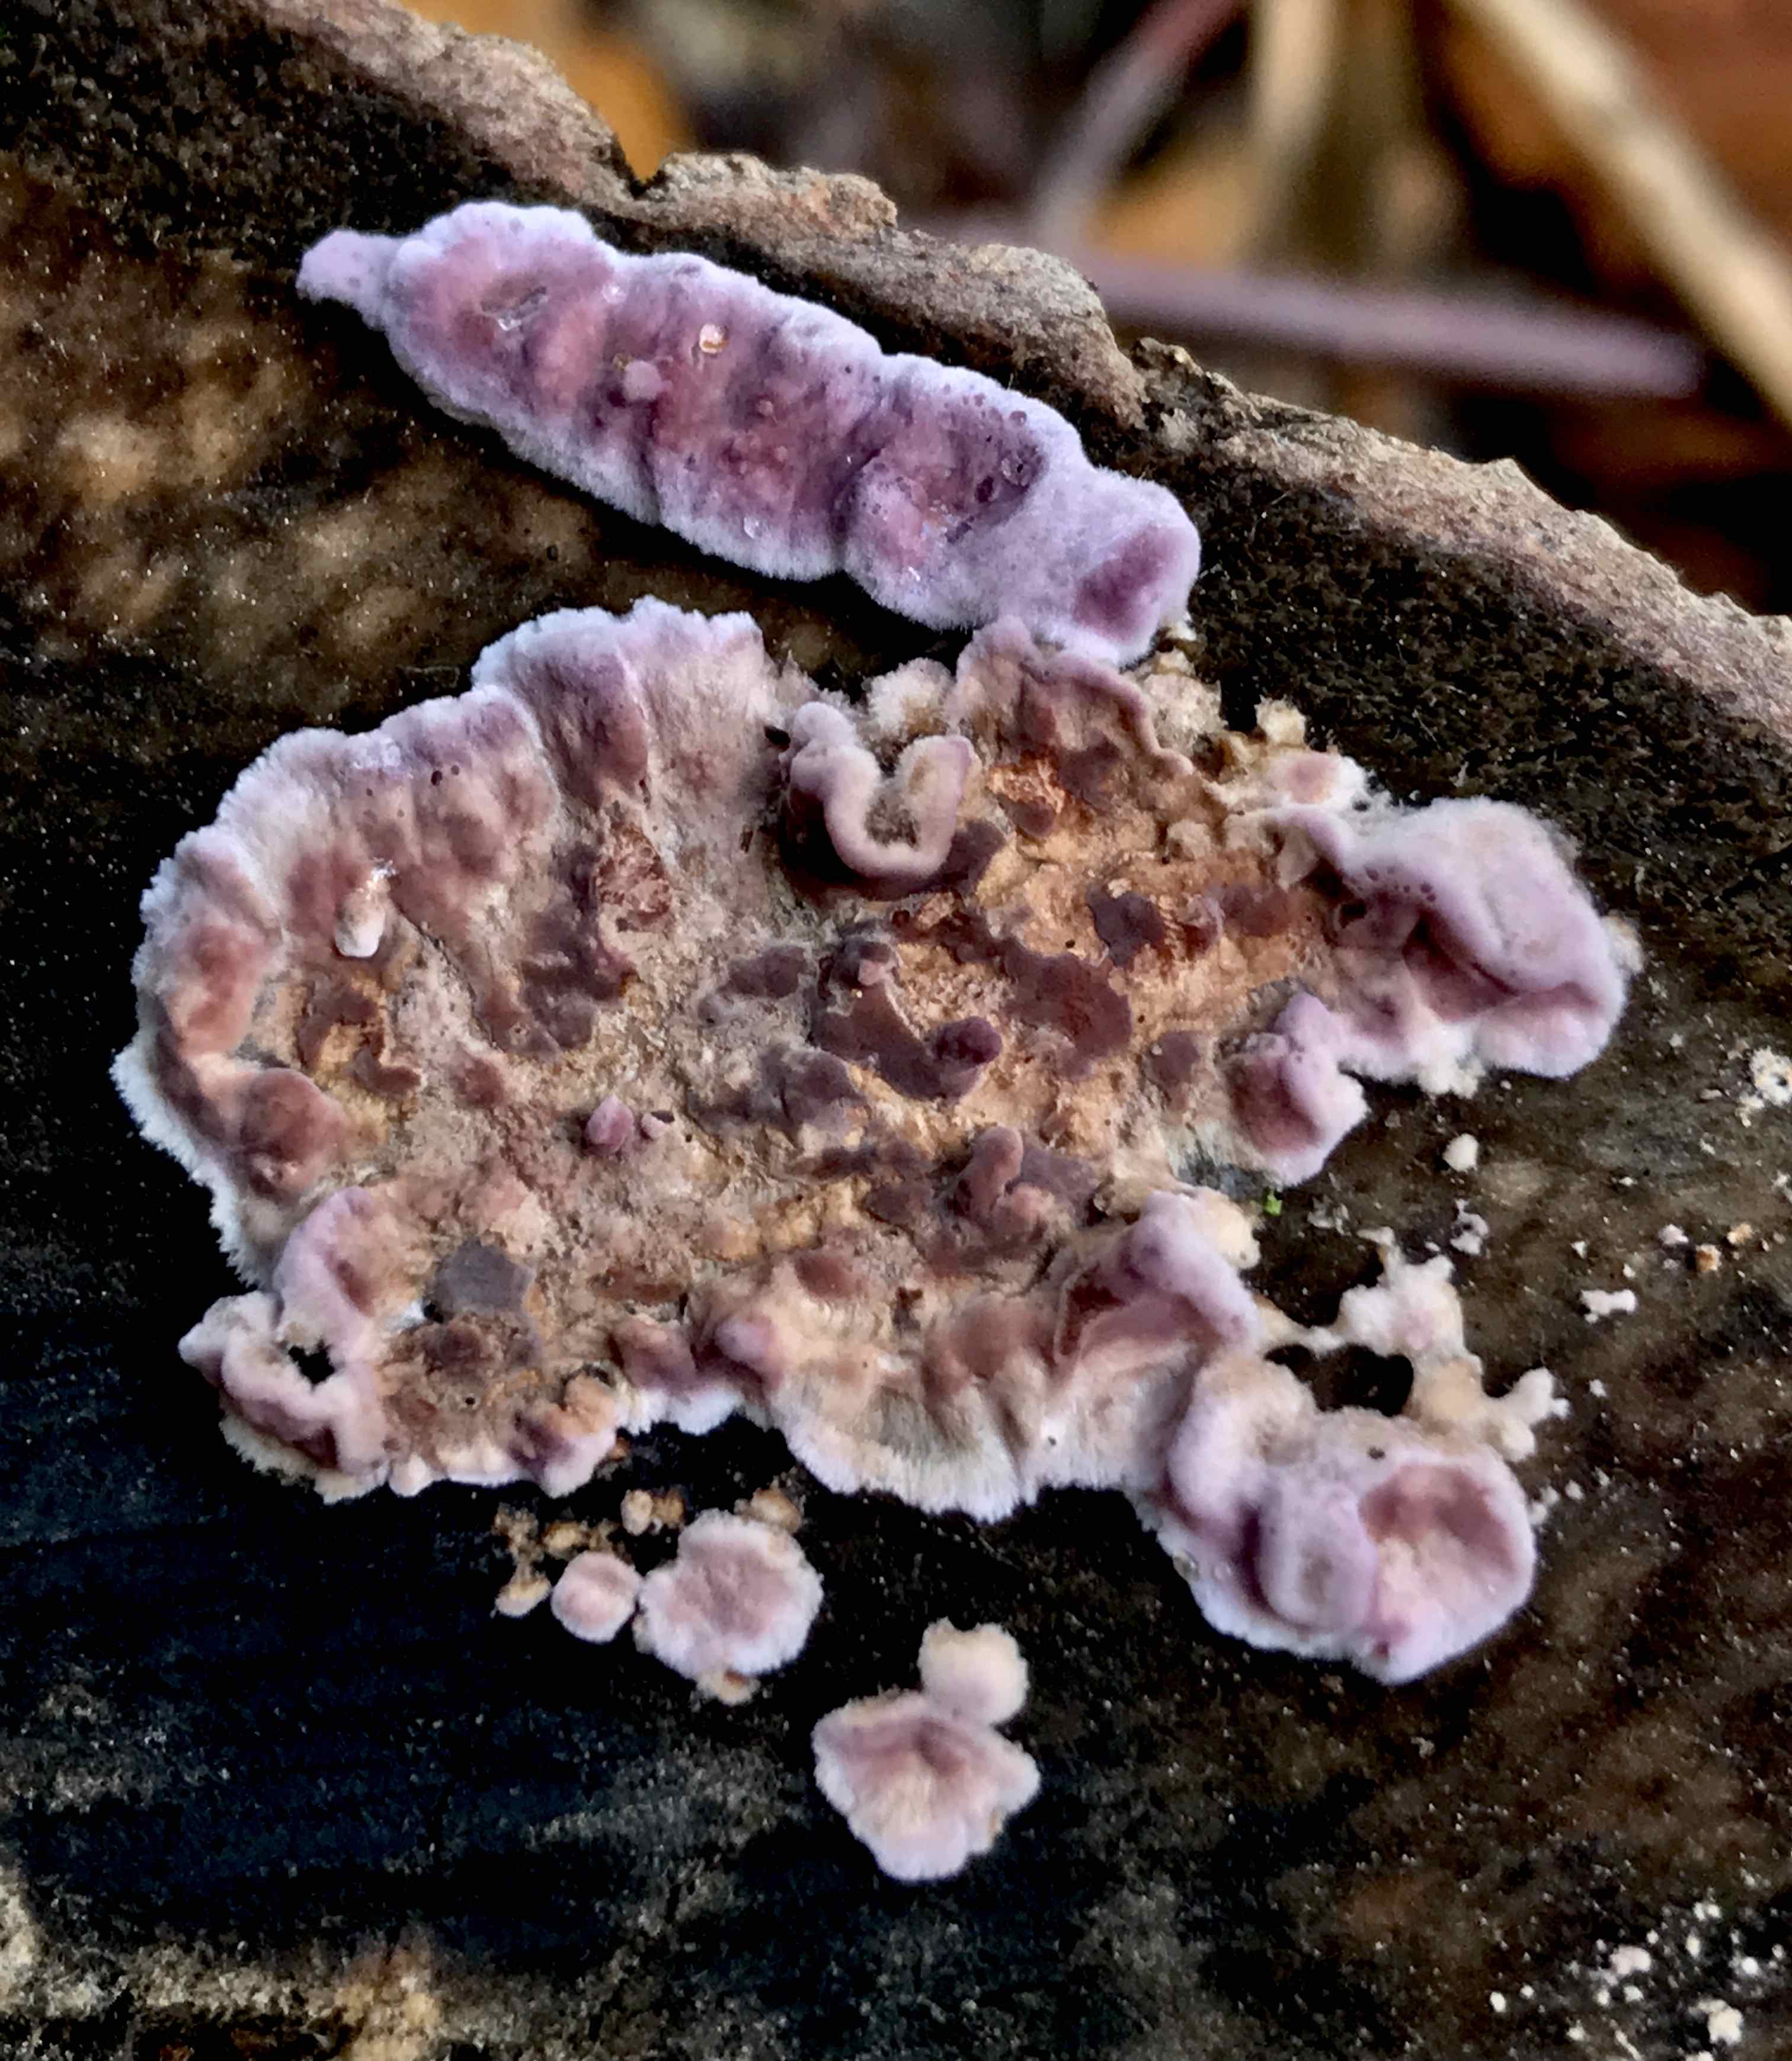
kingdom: Fungi
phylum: Basidiomycota
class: Agaricomycetes
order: Agaricales
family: Cyphellaceae
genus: Chondrostereum
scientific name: Chondrostereum purpureum
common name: purpurlædersvamp
